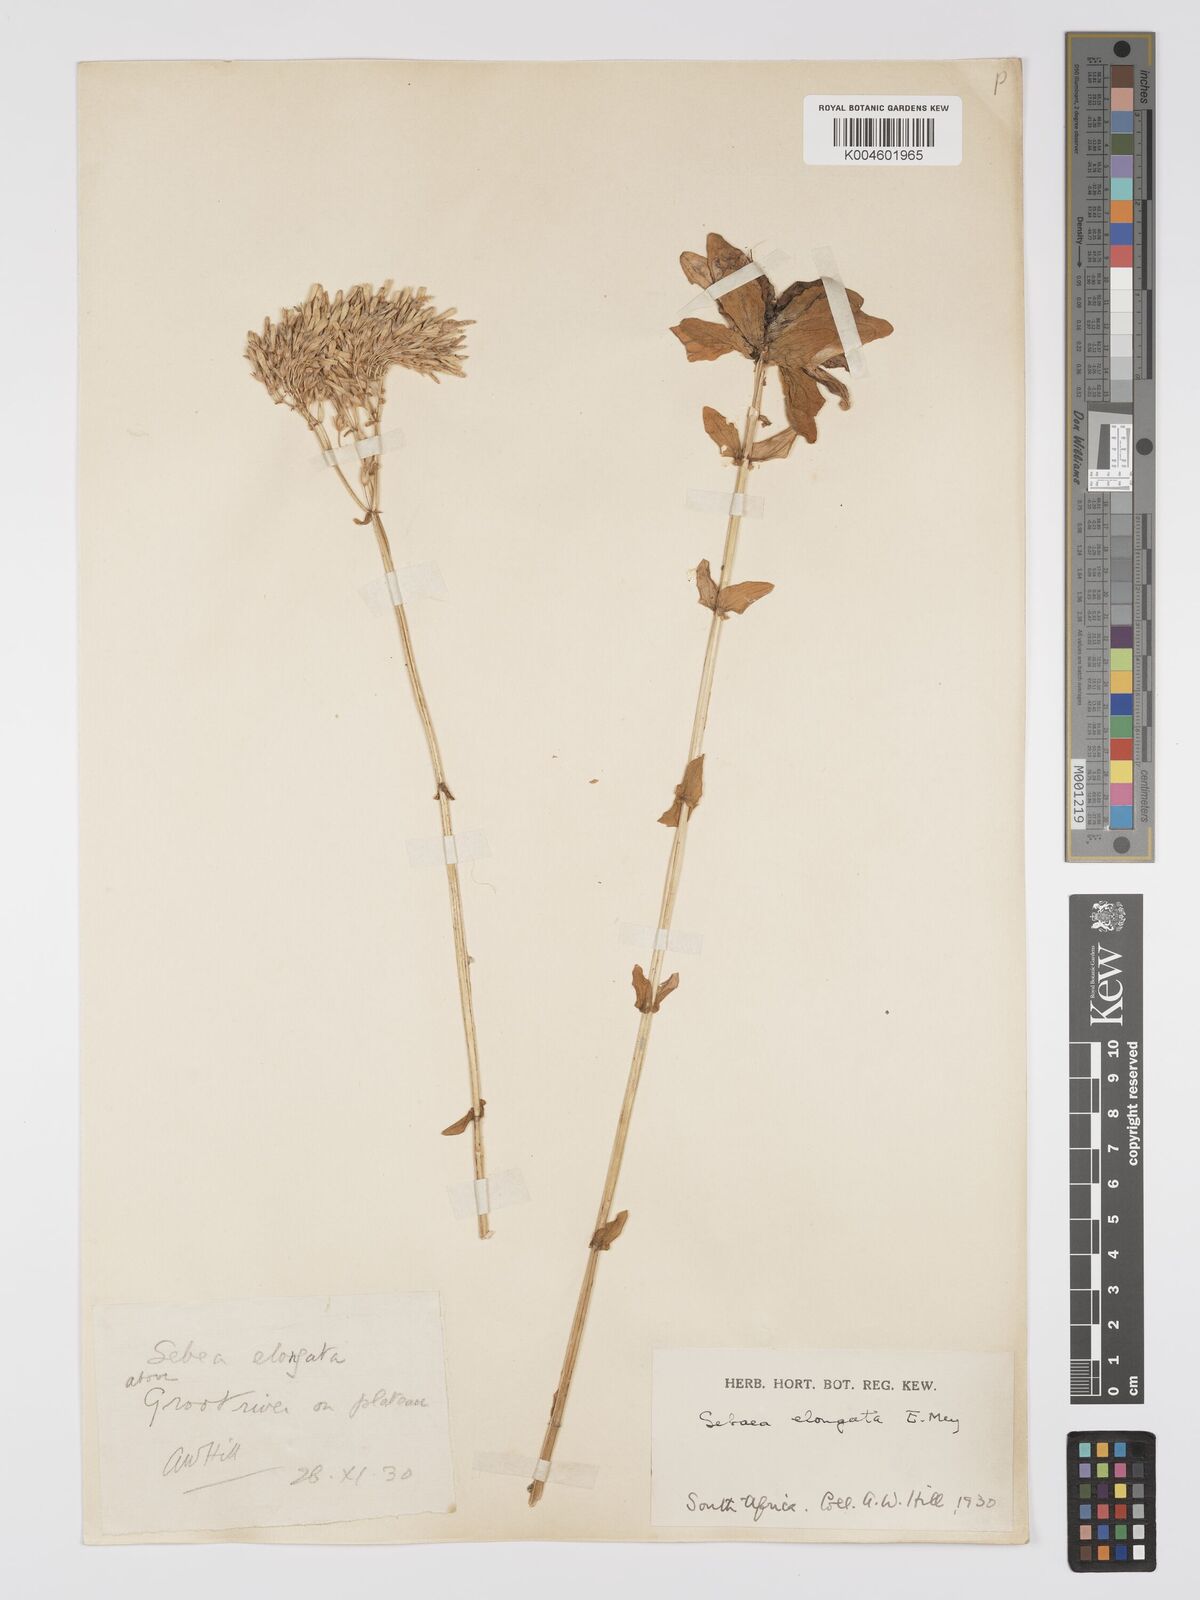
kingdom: Plantae
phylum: Tracheophyta
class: Magnoliopsida
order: Gentianales
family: Gentianaceae
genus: Sebaea
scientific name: Sebaea elongata
